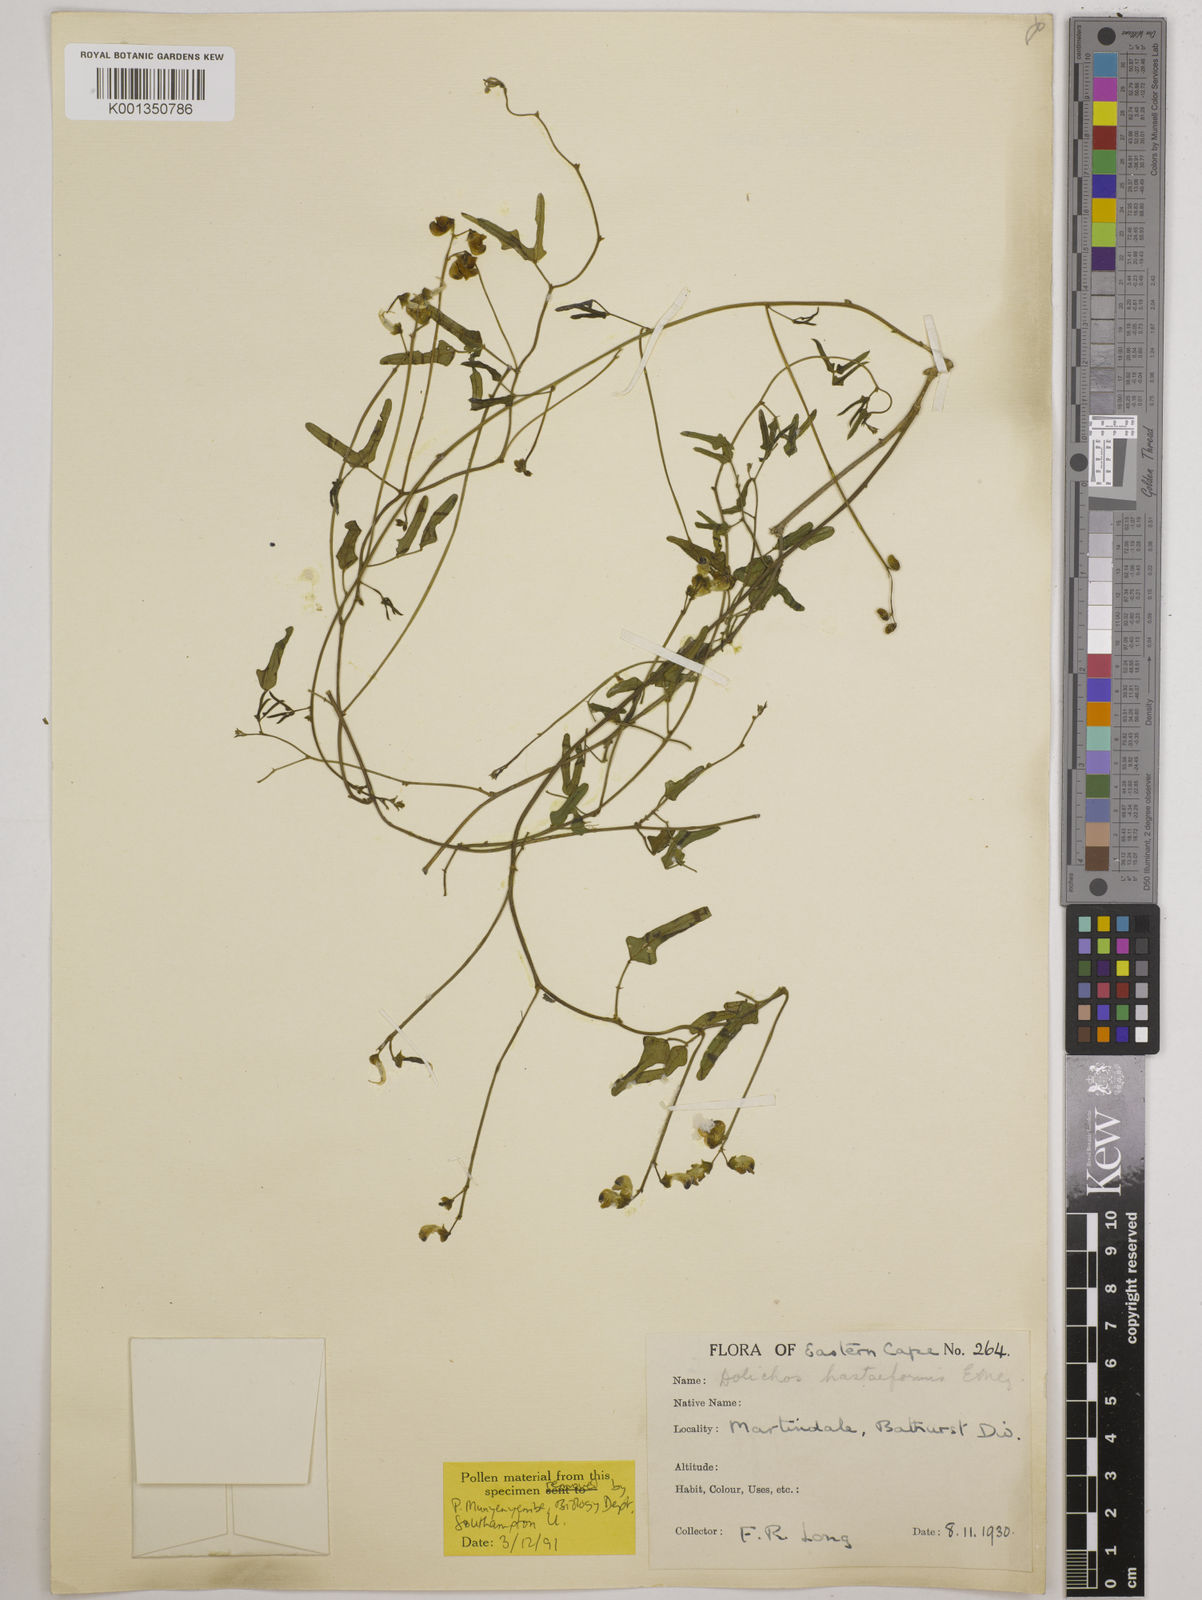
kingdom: Plantae
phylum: Tracheophyta
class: Magnoliopsida
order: Fabales
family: Fabaceae
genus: Dolichos
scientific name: Dolichos
